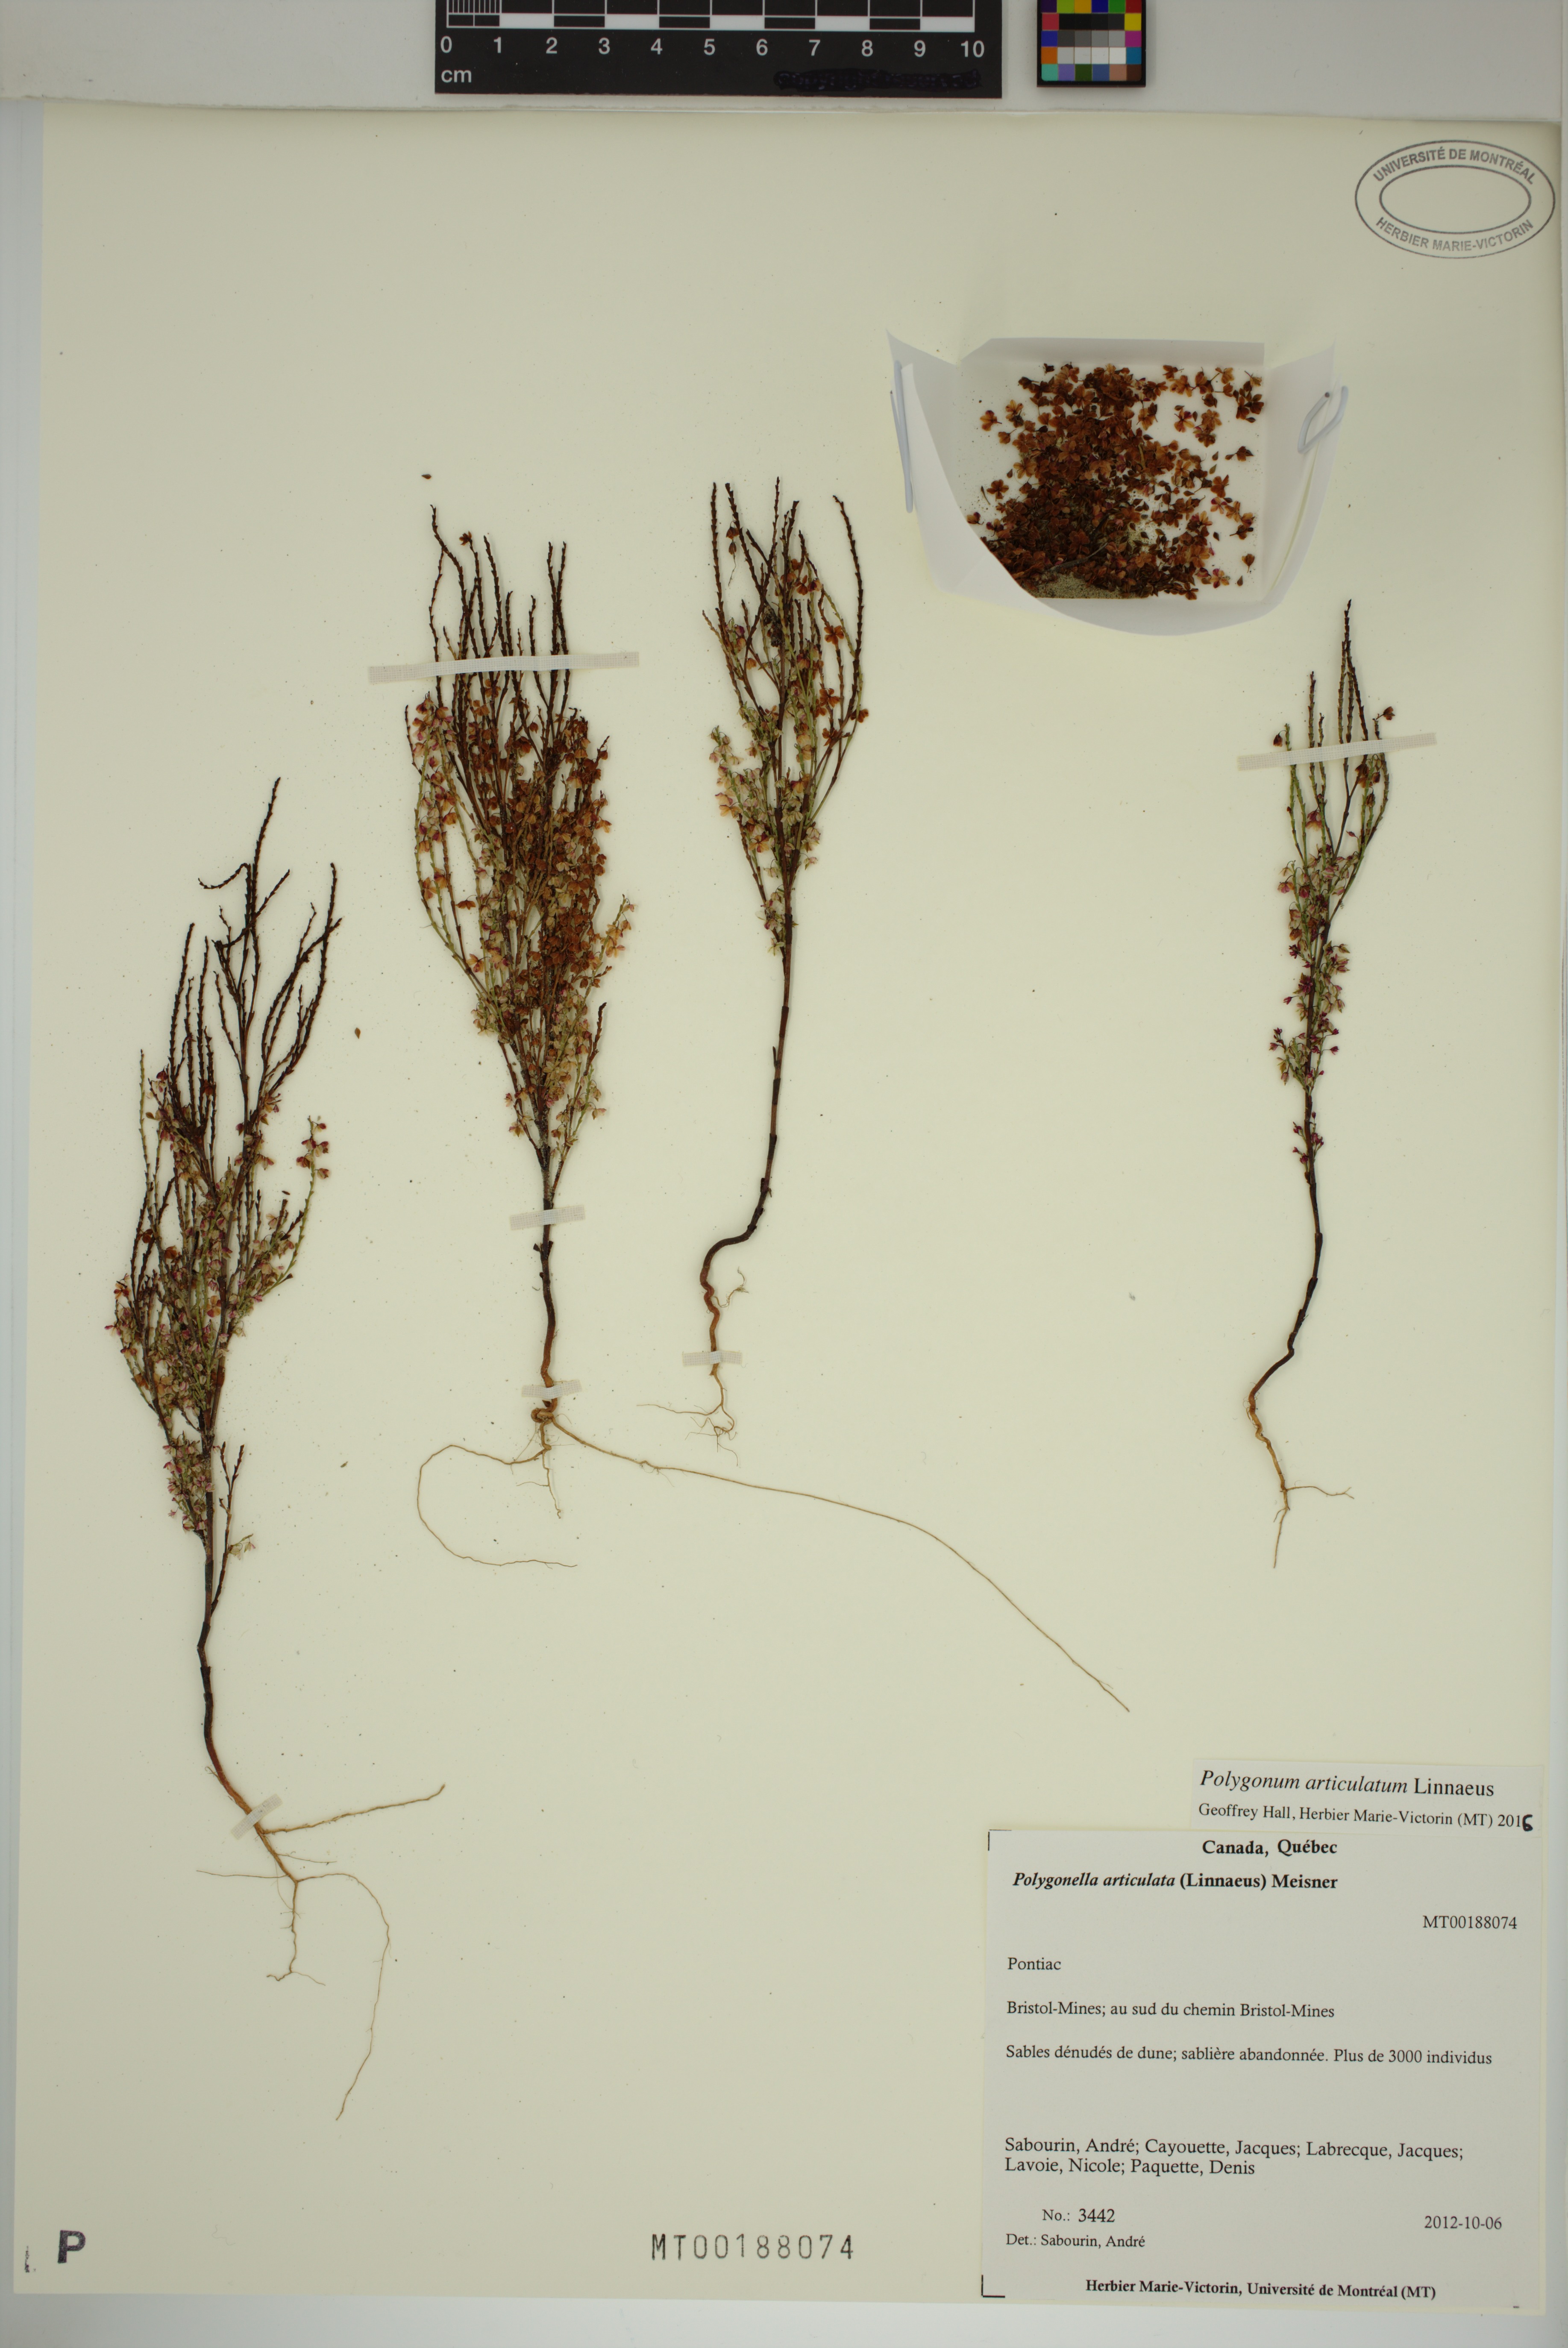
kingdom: Plantae
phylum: Tracheophyta
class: Magnoliopsida
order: Caryophyllales
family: Polygonaceae
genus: Polygonella
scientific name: Polygonella articulata
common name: Coastal jointweed
